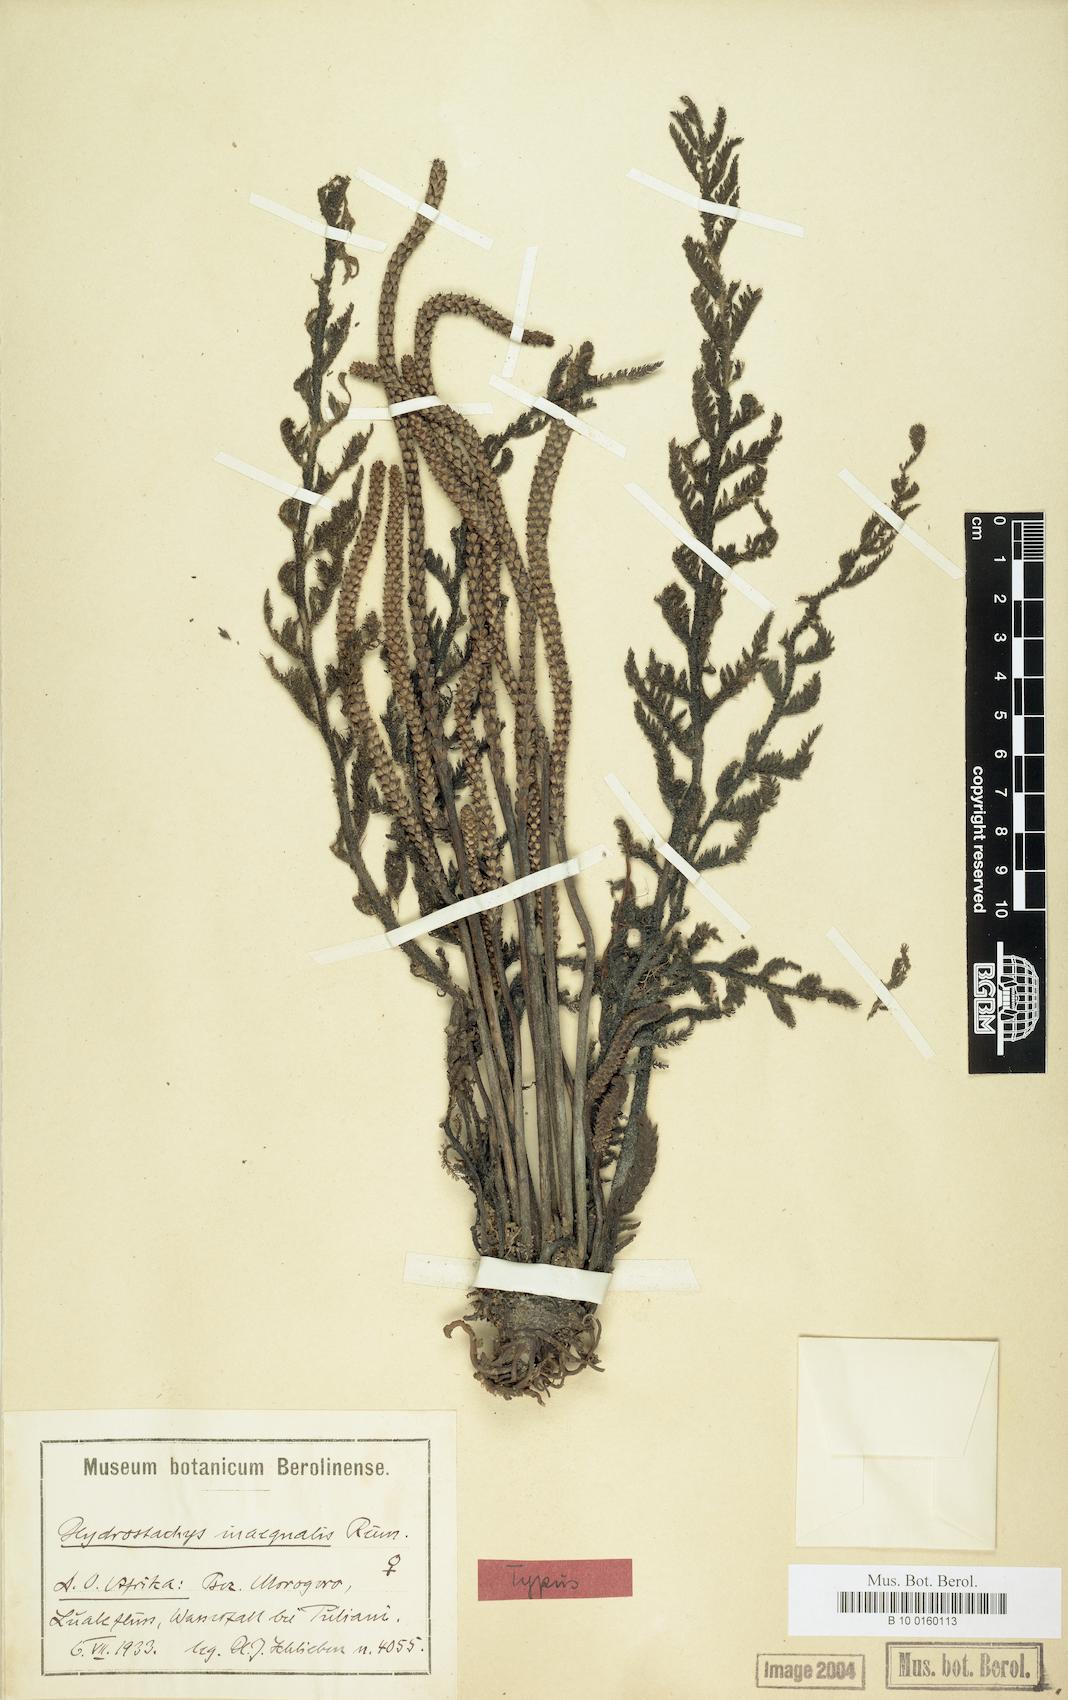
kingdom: Plantae
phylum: Tracheophyta
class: Magnoliopsida
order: Cornales
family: Hydrostachyaceae
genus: Hydrostachys
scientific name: Hydrostachys angustisecta
